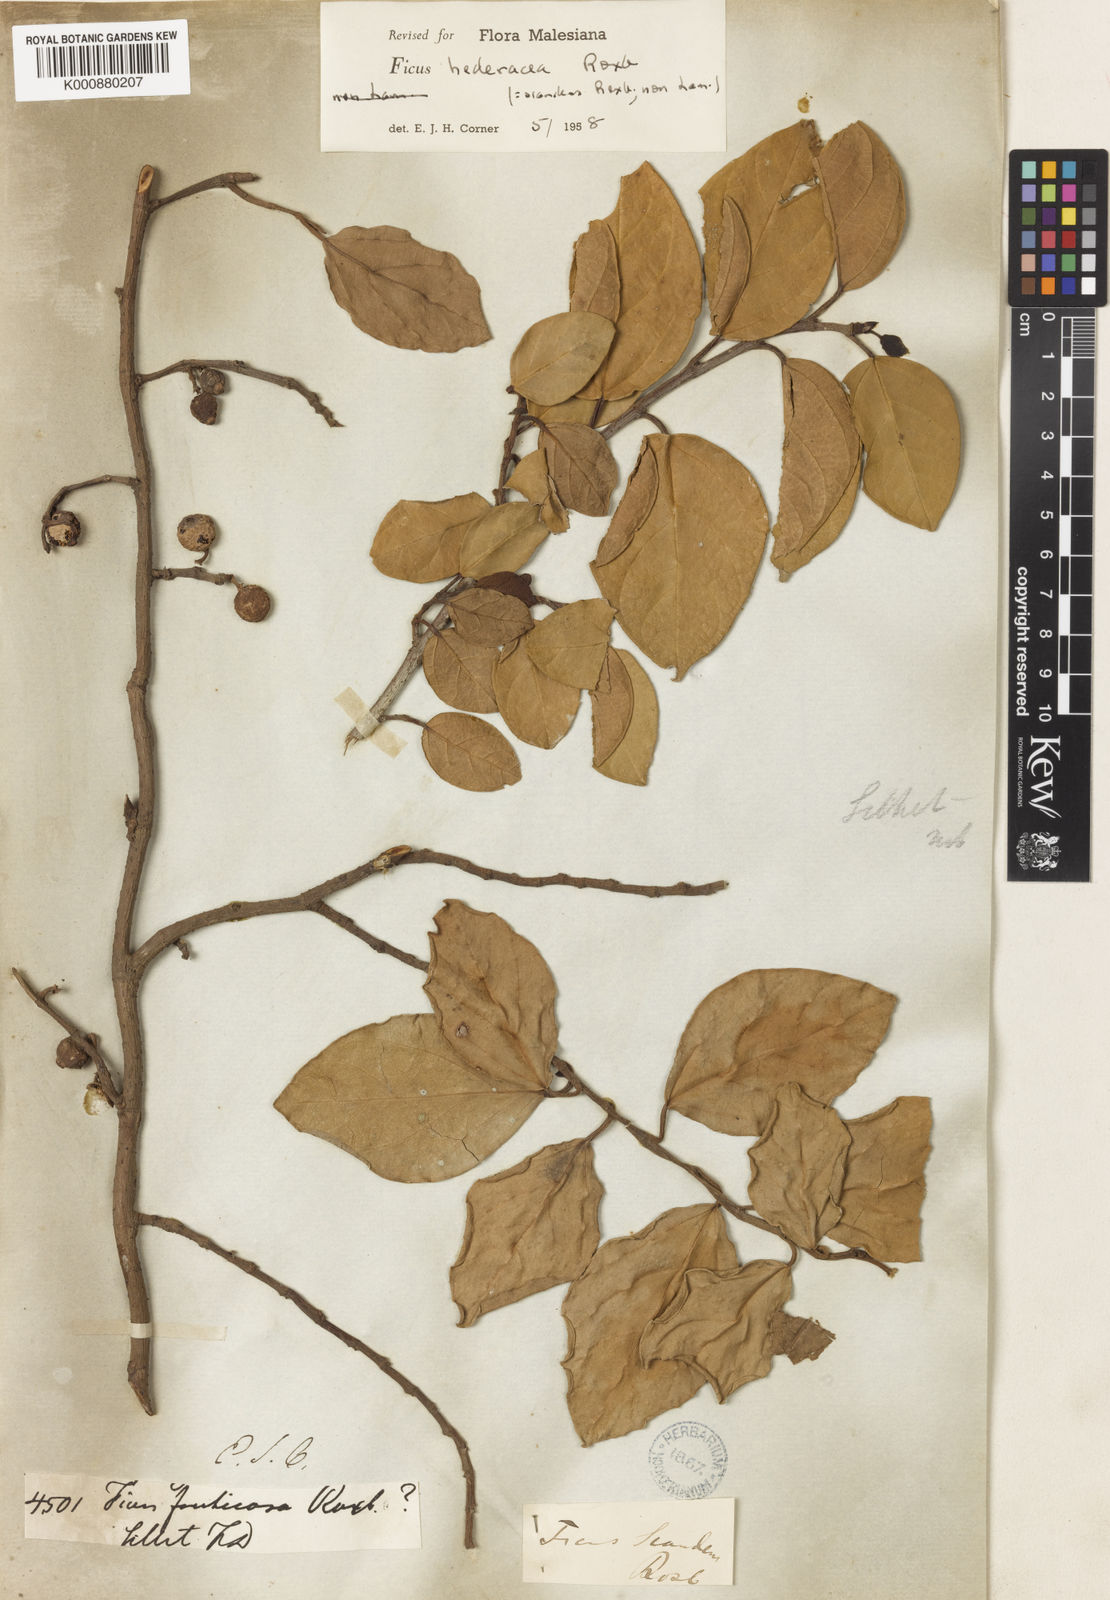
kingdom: Plantae
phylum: Tracheophyta
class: Magnoliopsida
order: Rosales
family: Moraceae
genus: Ficus
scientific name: Ficus hederacea
